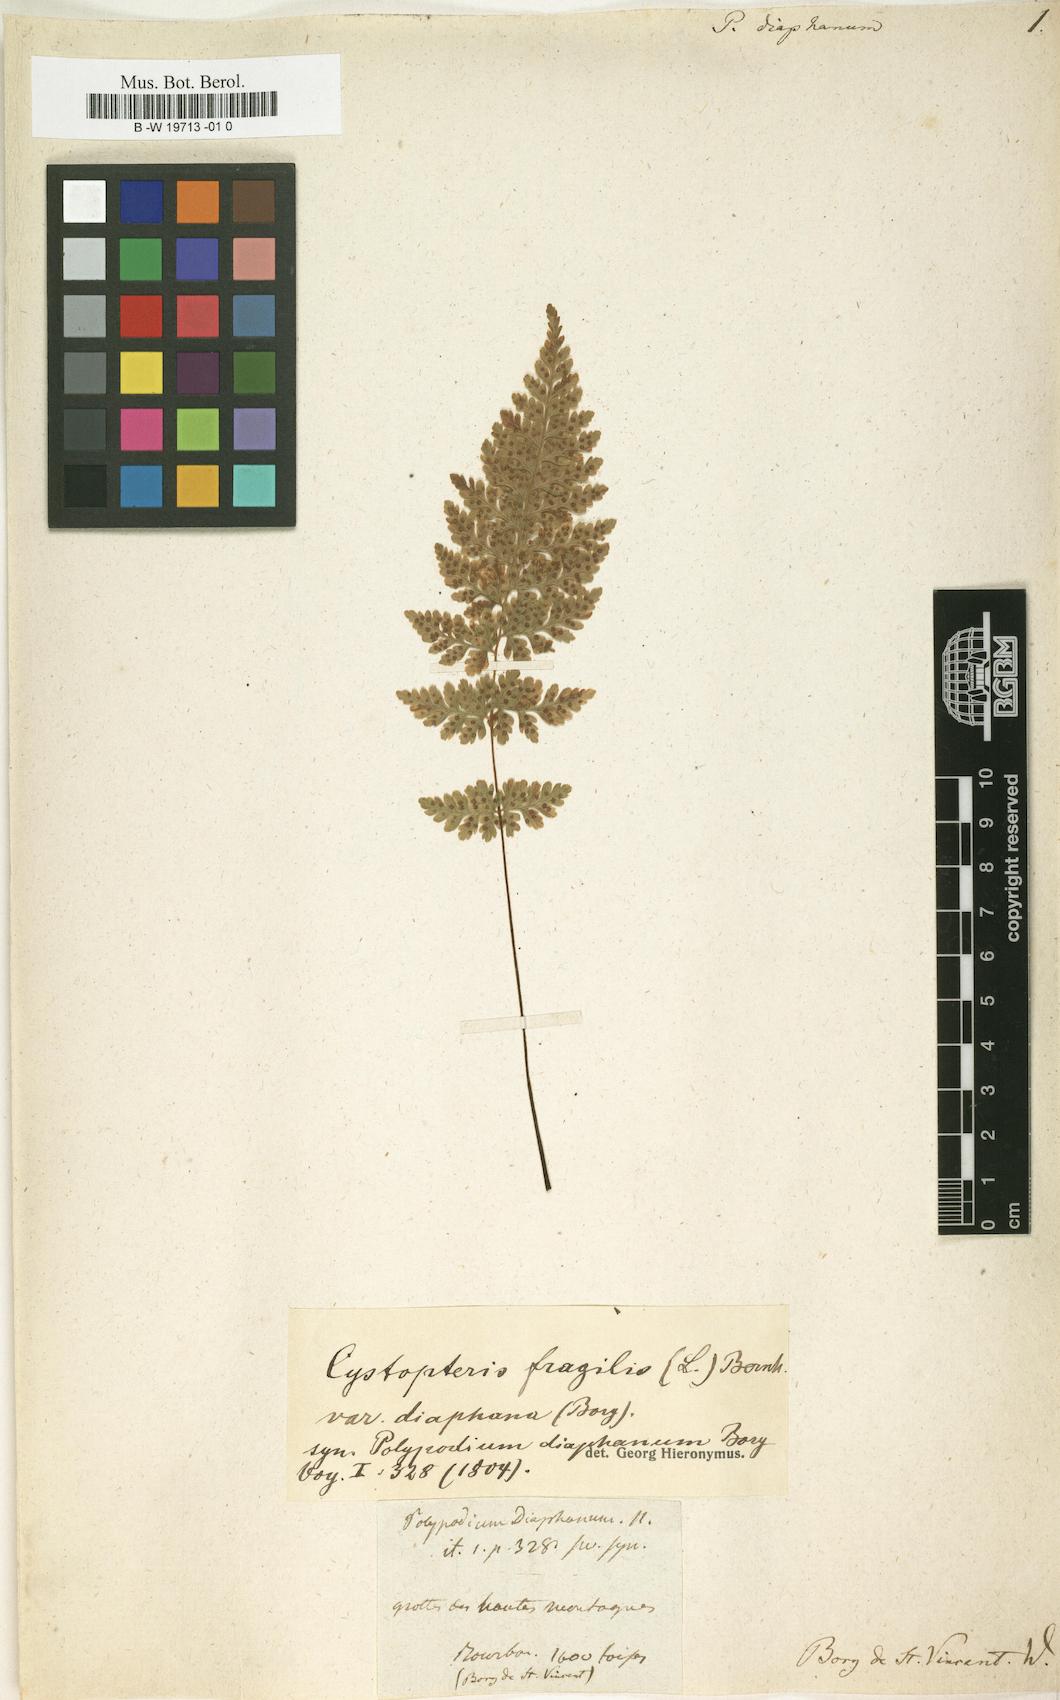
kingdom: Plantae
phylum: Tracheophyta
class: Polypodiopsida
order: Polypodiales
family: Polypodiaceae
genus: Thylacopteris
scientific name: Thylacopteris diaphana
